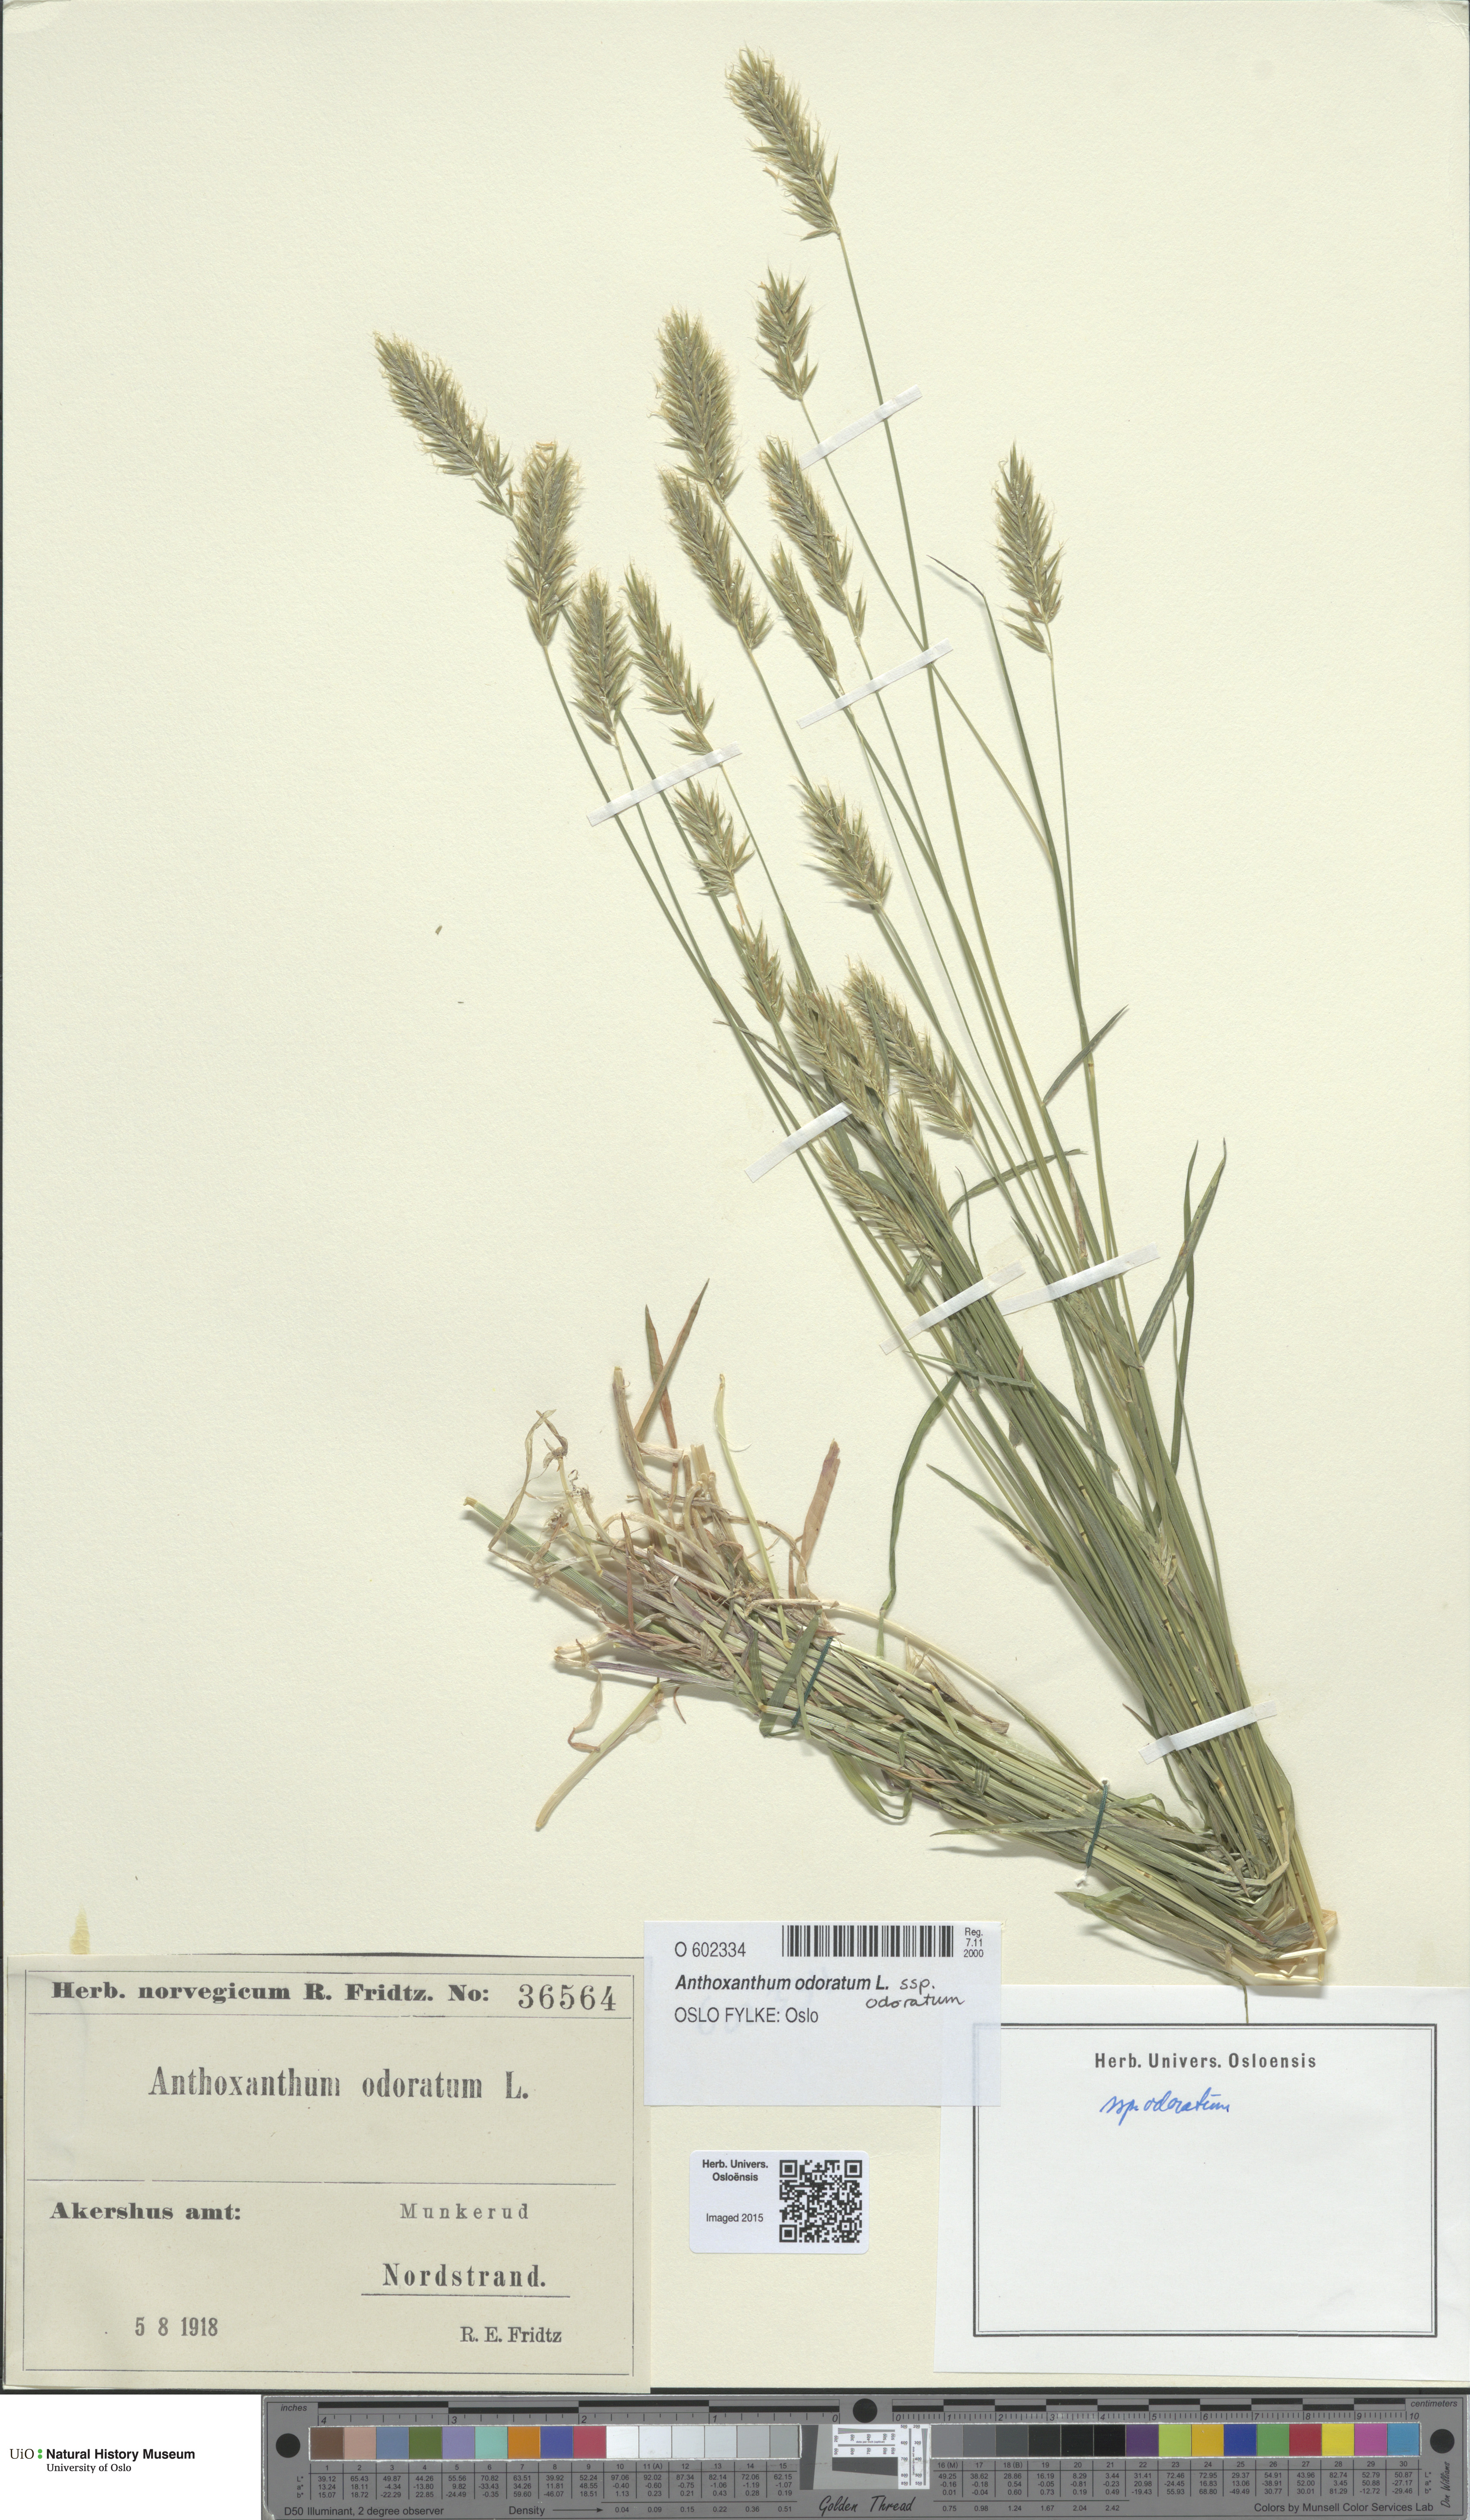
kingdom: Plantae
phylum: Tracheophyta
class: Liliopsida
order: Poales
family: Poaceae
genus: Anthoxanthum
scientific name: Anthoxanthum odoratum
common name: Sweet vernalgrass
